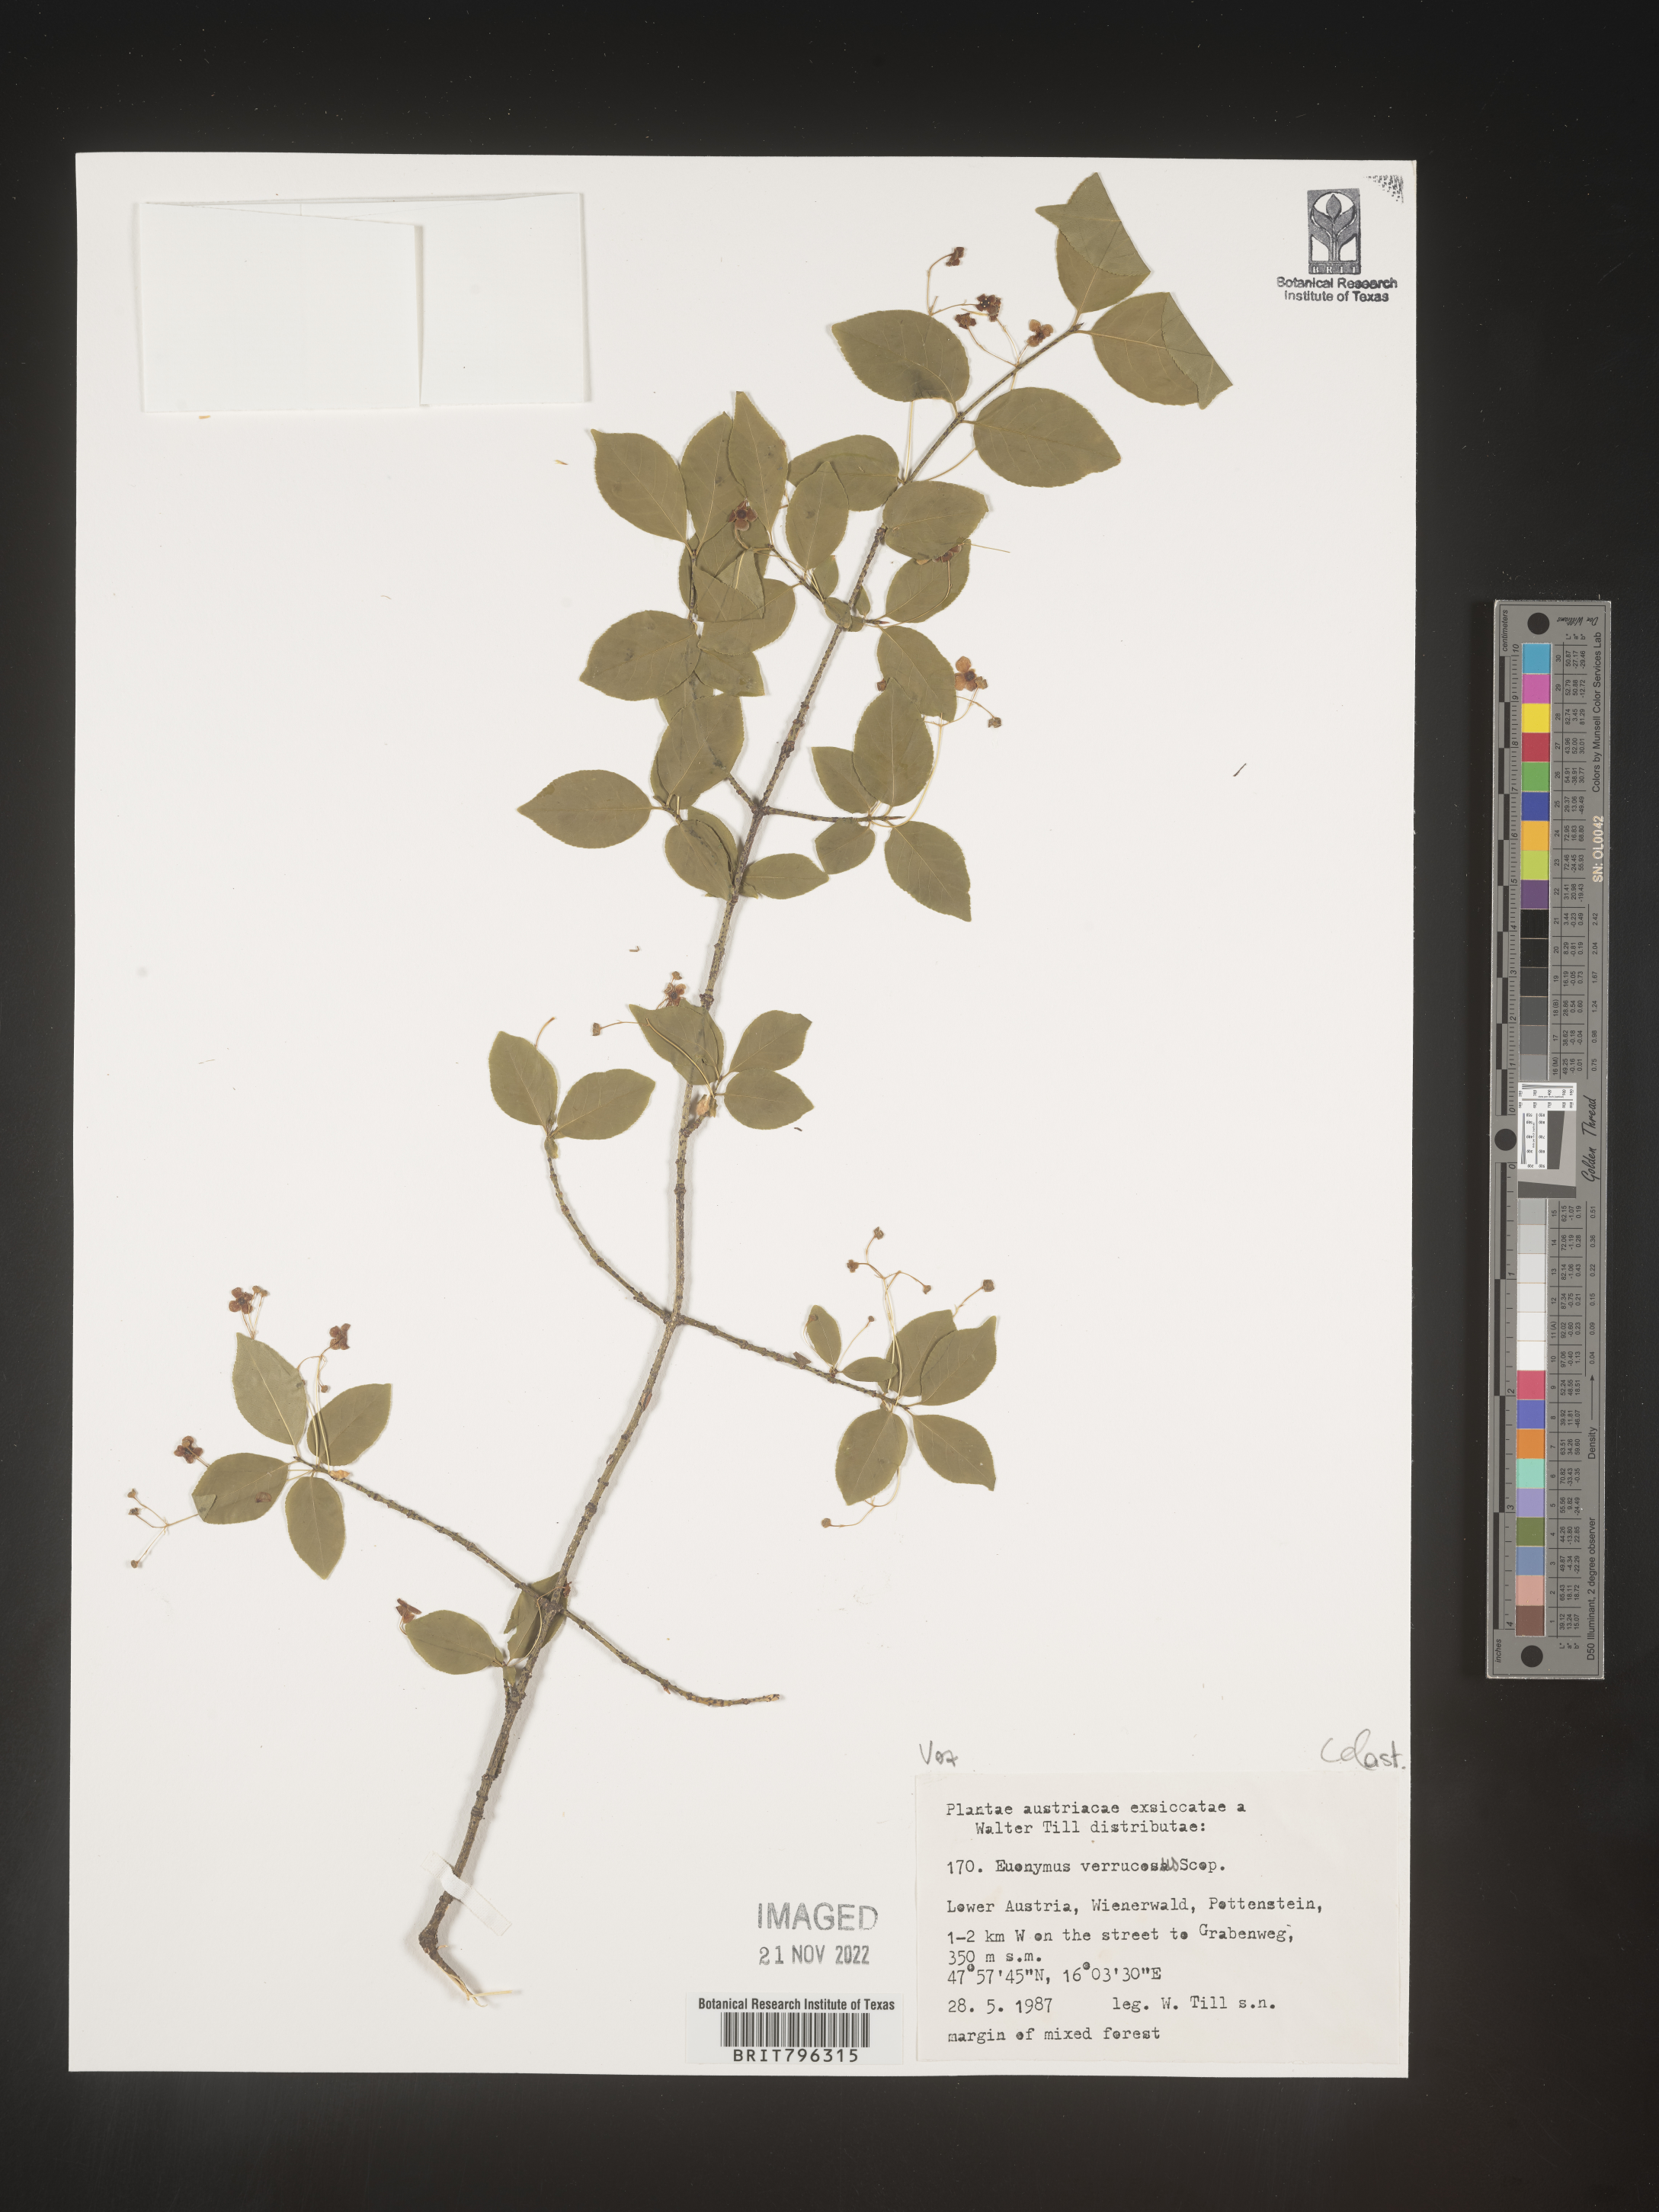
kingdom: Plantae
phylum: Tracheophyta
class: Magnoliopsida
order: Celastrales
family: Celastraceae
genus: Euonymus
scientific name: Euonymus
